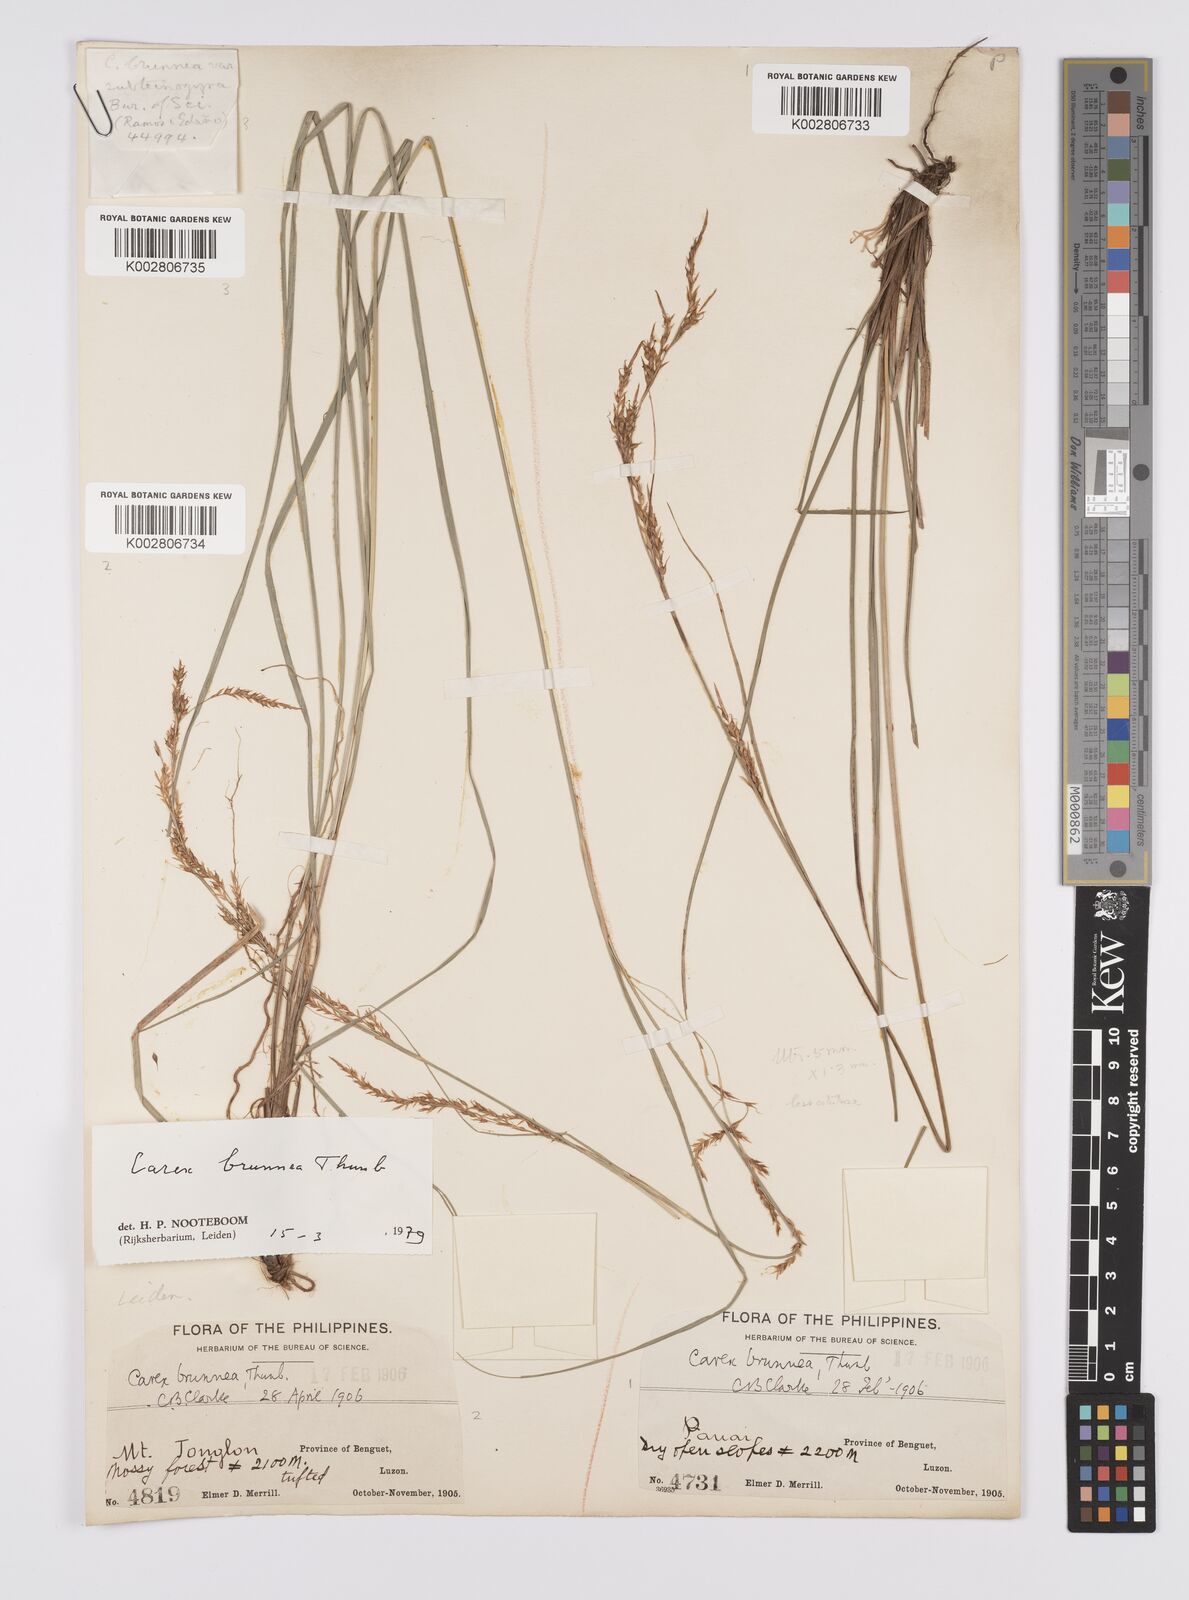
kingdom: Plantae
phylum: Tracheophyta
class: Liliopsida
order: Poales
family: Cyperaceae
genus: Carex
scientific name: Carex brunnea
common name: Greater brown sedge
